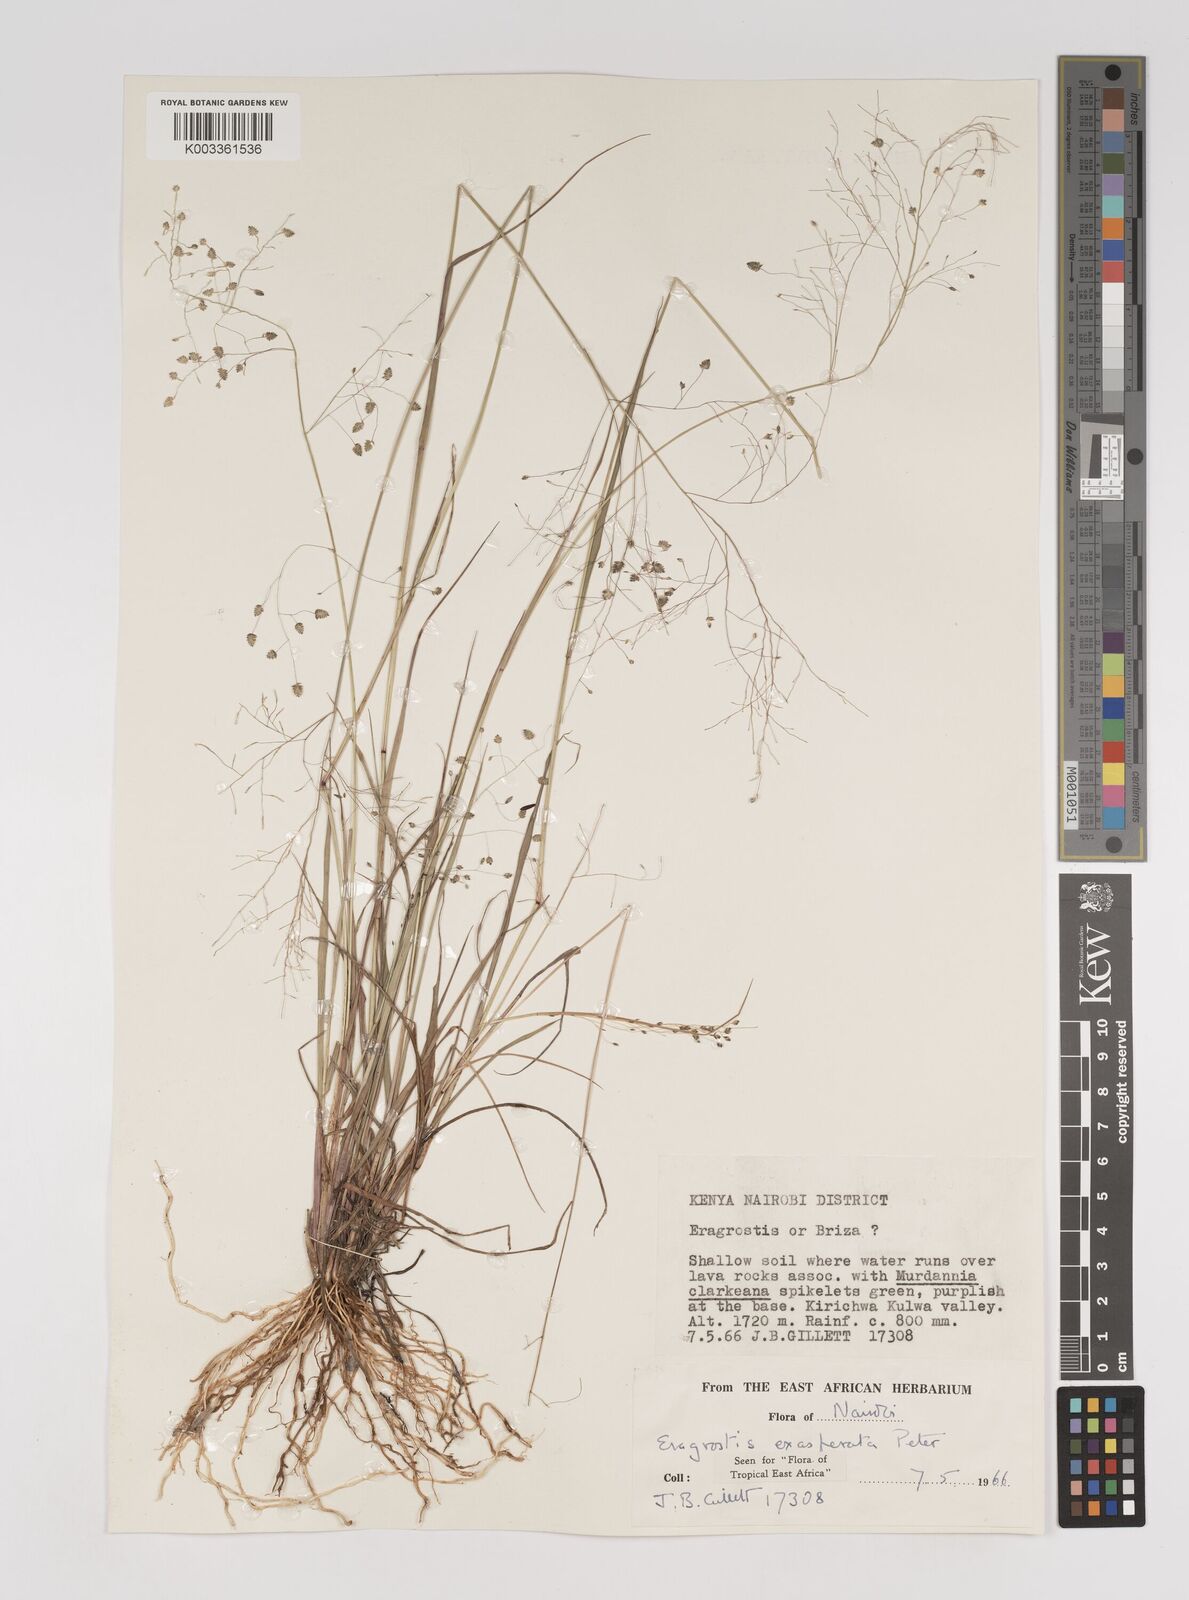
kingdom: Plantae
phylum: Tracheophyta
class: Liliopsida
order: Poales
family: Poaceae
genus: Eragrostis
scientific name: Eragrostis exasperata
